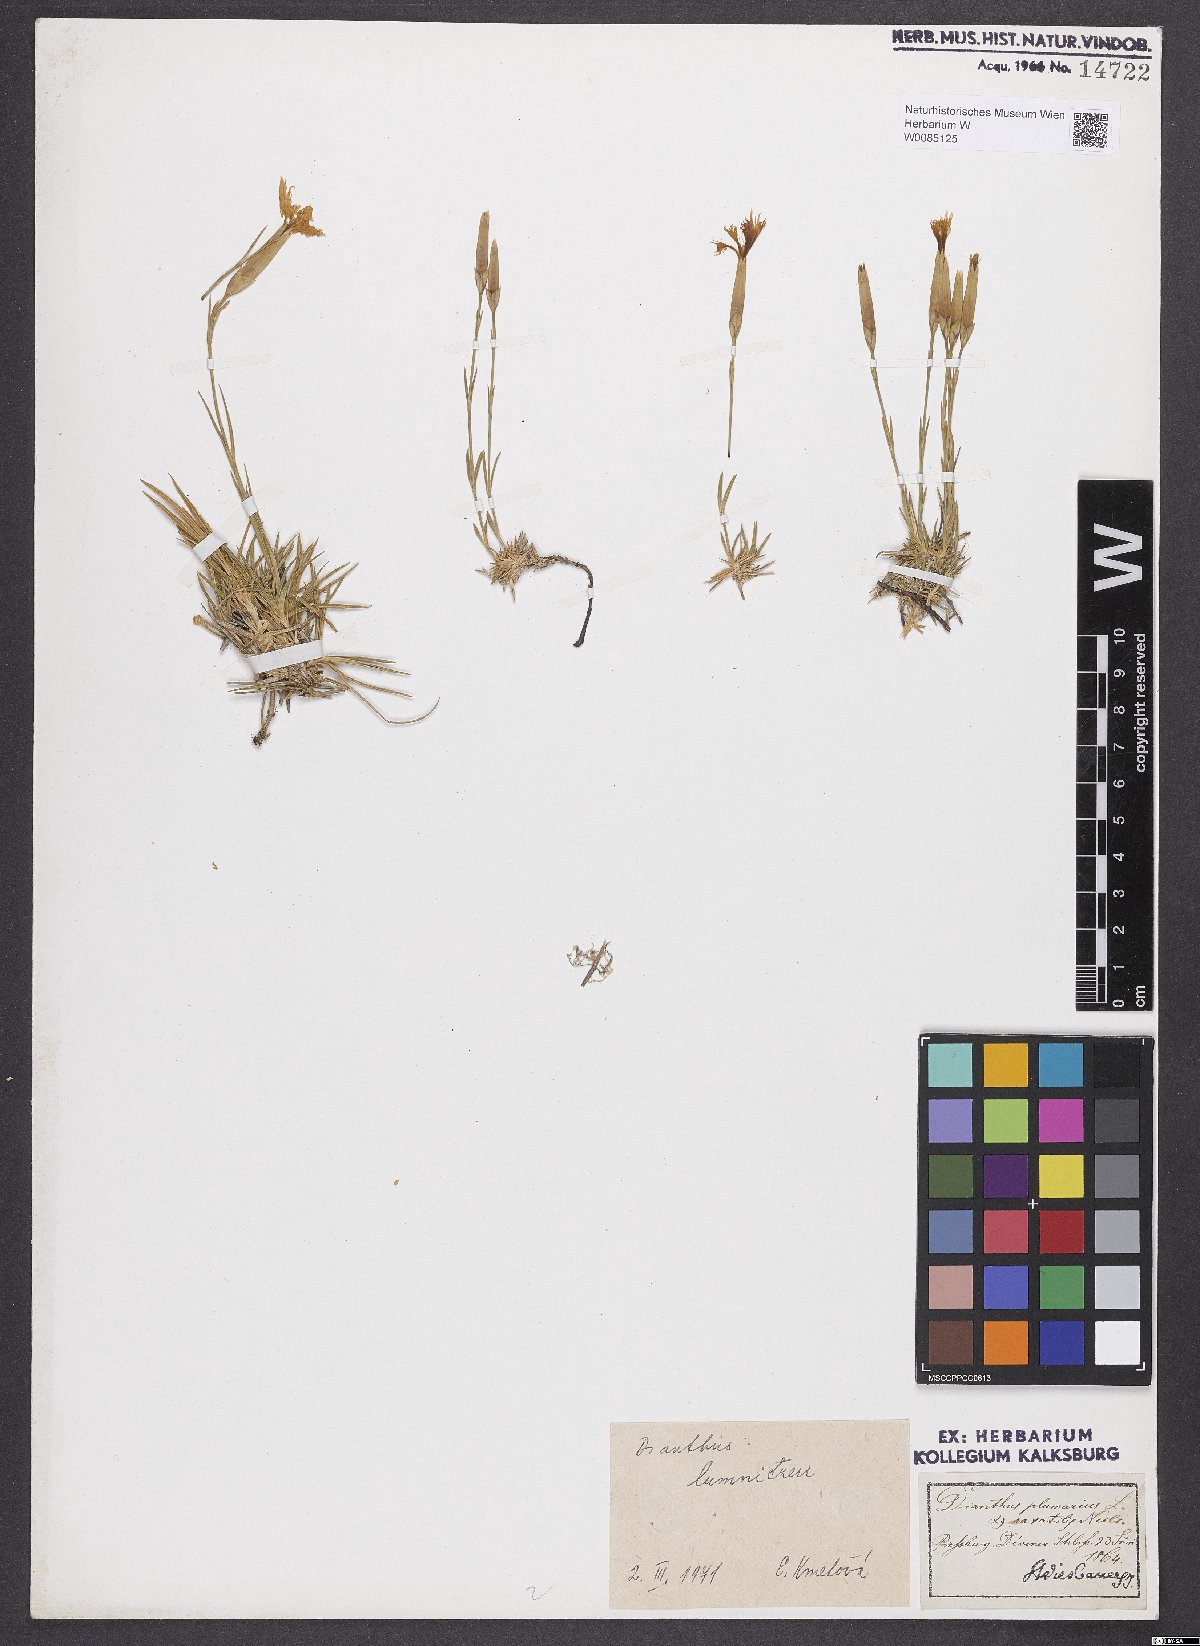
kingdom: Plantae
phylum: Tracheophyta
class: Magnoliopsida
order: Caryophyllales
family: Caryophyllaceae
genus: Dianthus
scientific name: Dianthus praecox
